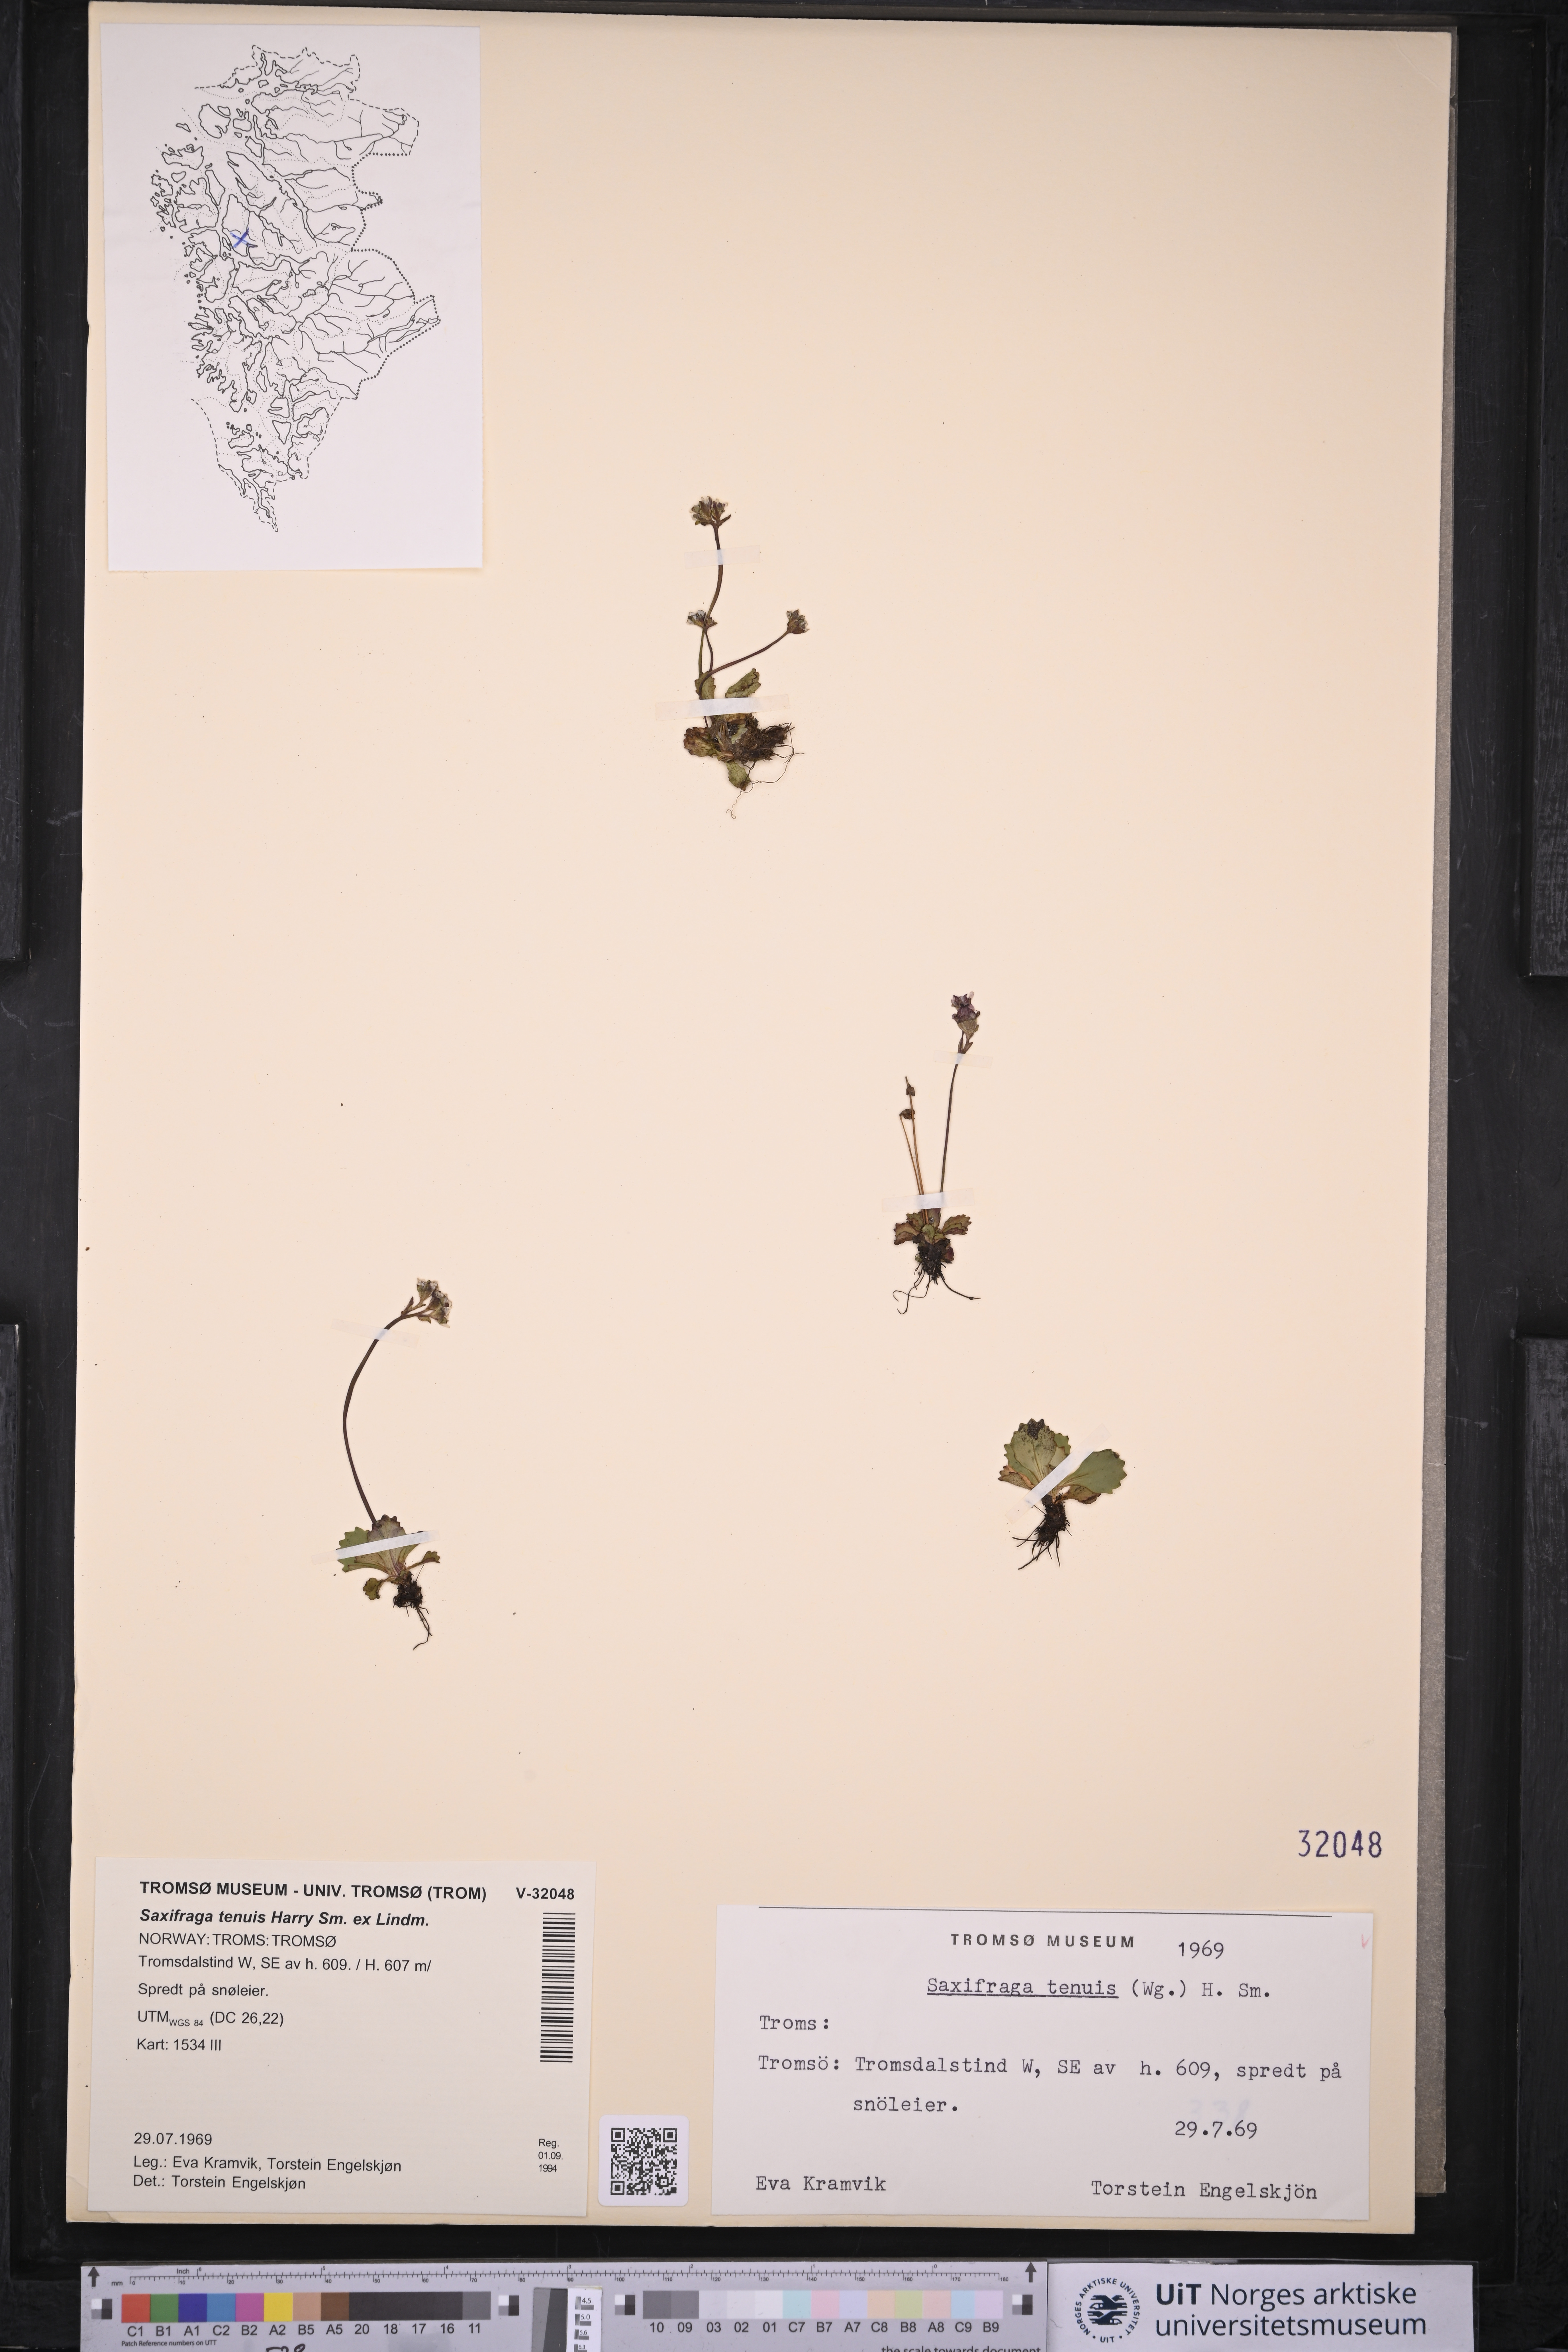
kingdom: Plantae
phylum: Tracheophyta
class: Magnoliopsida
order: Saxifragales
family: Saxifragaceae
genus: Micranthes
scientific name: Micranthes tenuis
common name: Ottertail pass saxifrage
